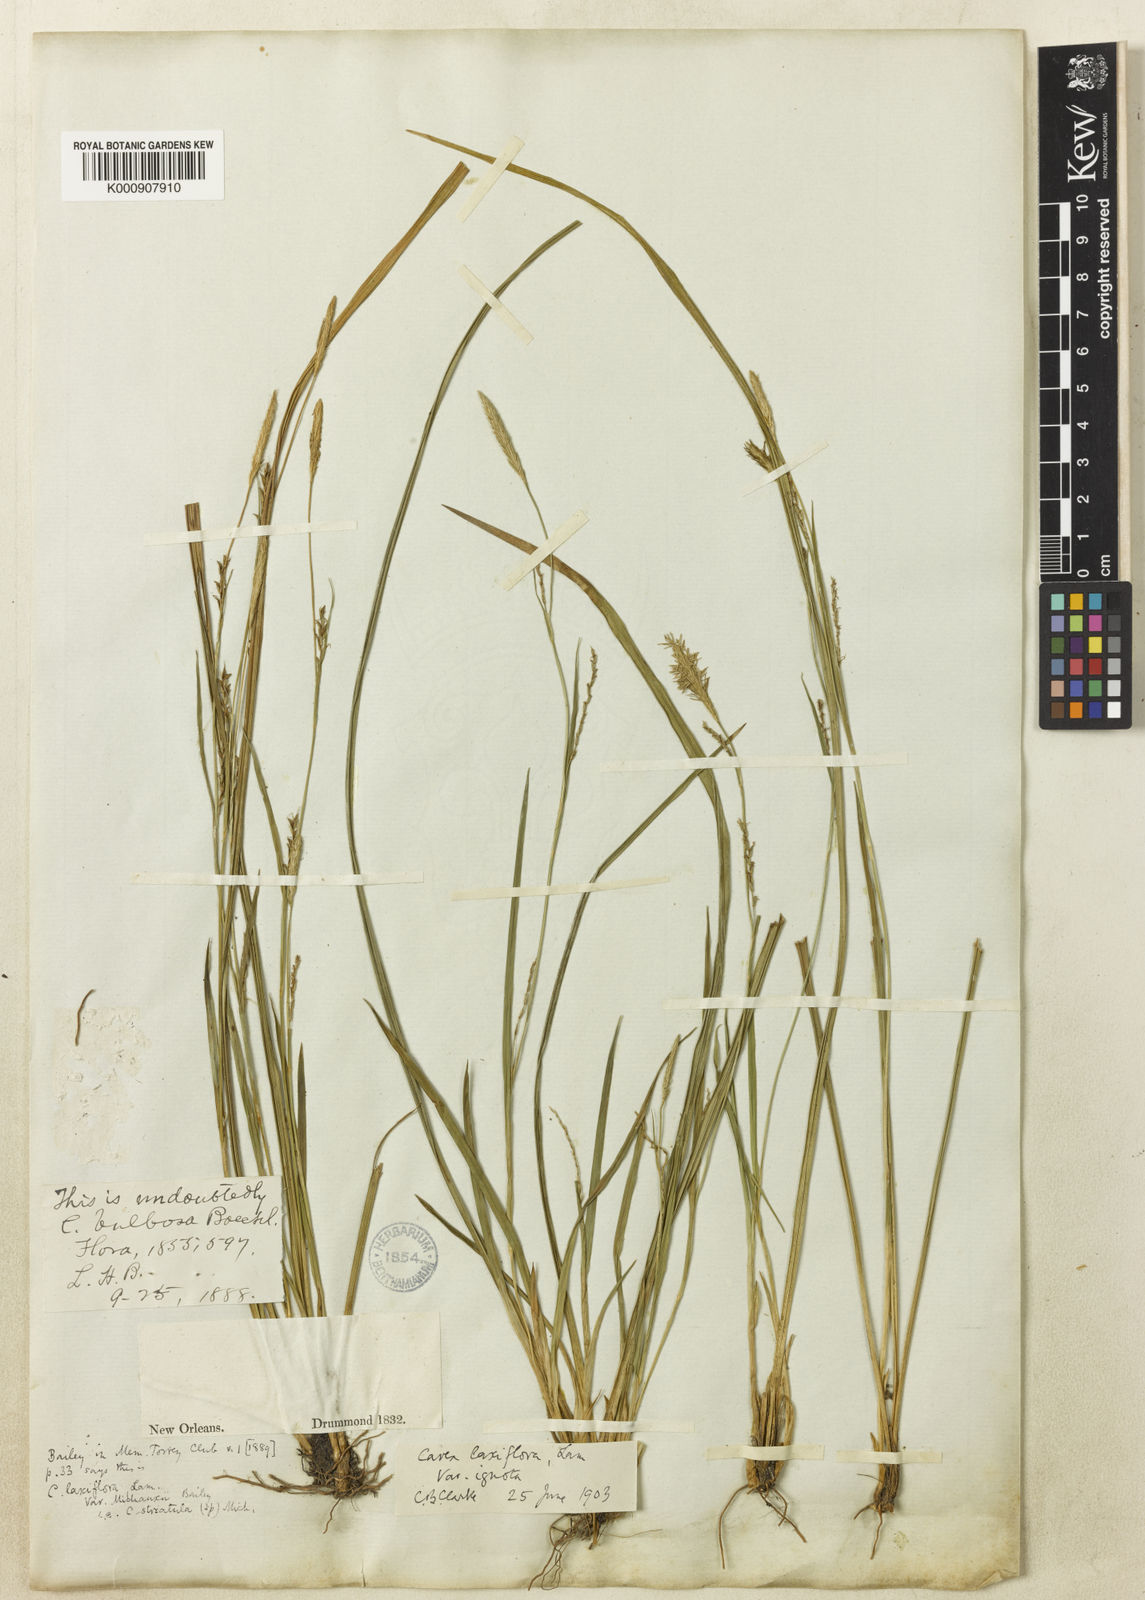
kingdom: Plantae
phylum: Tracheophyta
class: Liliopsida
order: Poales
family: Cyperaceae
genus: Carex
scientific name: Carex blanda
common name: Bland sedge
